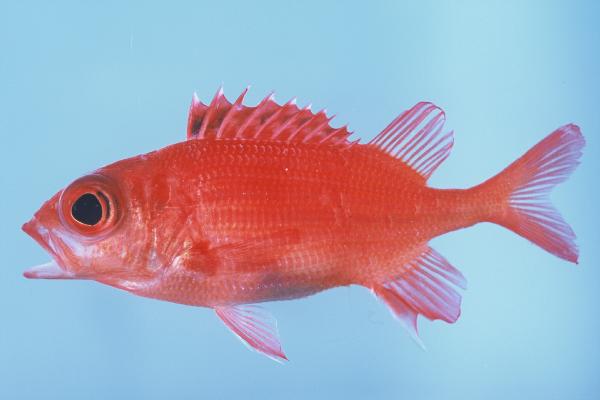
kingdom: Animalia
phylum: Chordata
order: Beryciformes
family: Holocentridae
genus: Sargocentron
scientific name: Sargocentron tiere
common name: Blue lined squirrelfish
